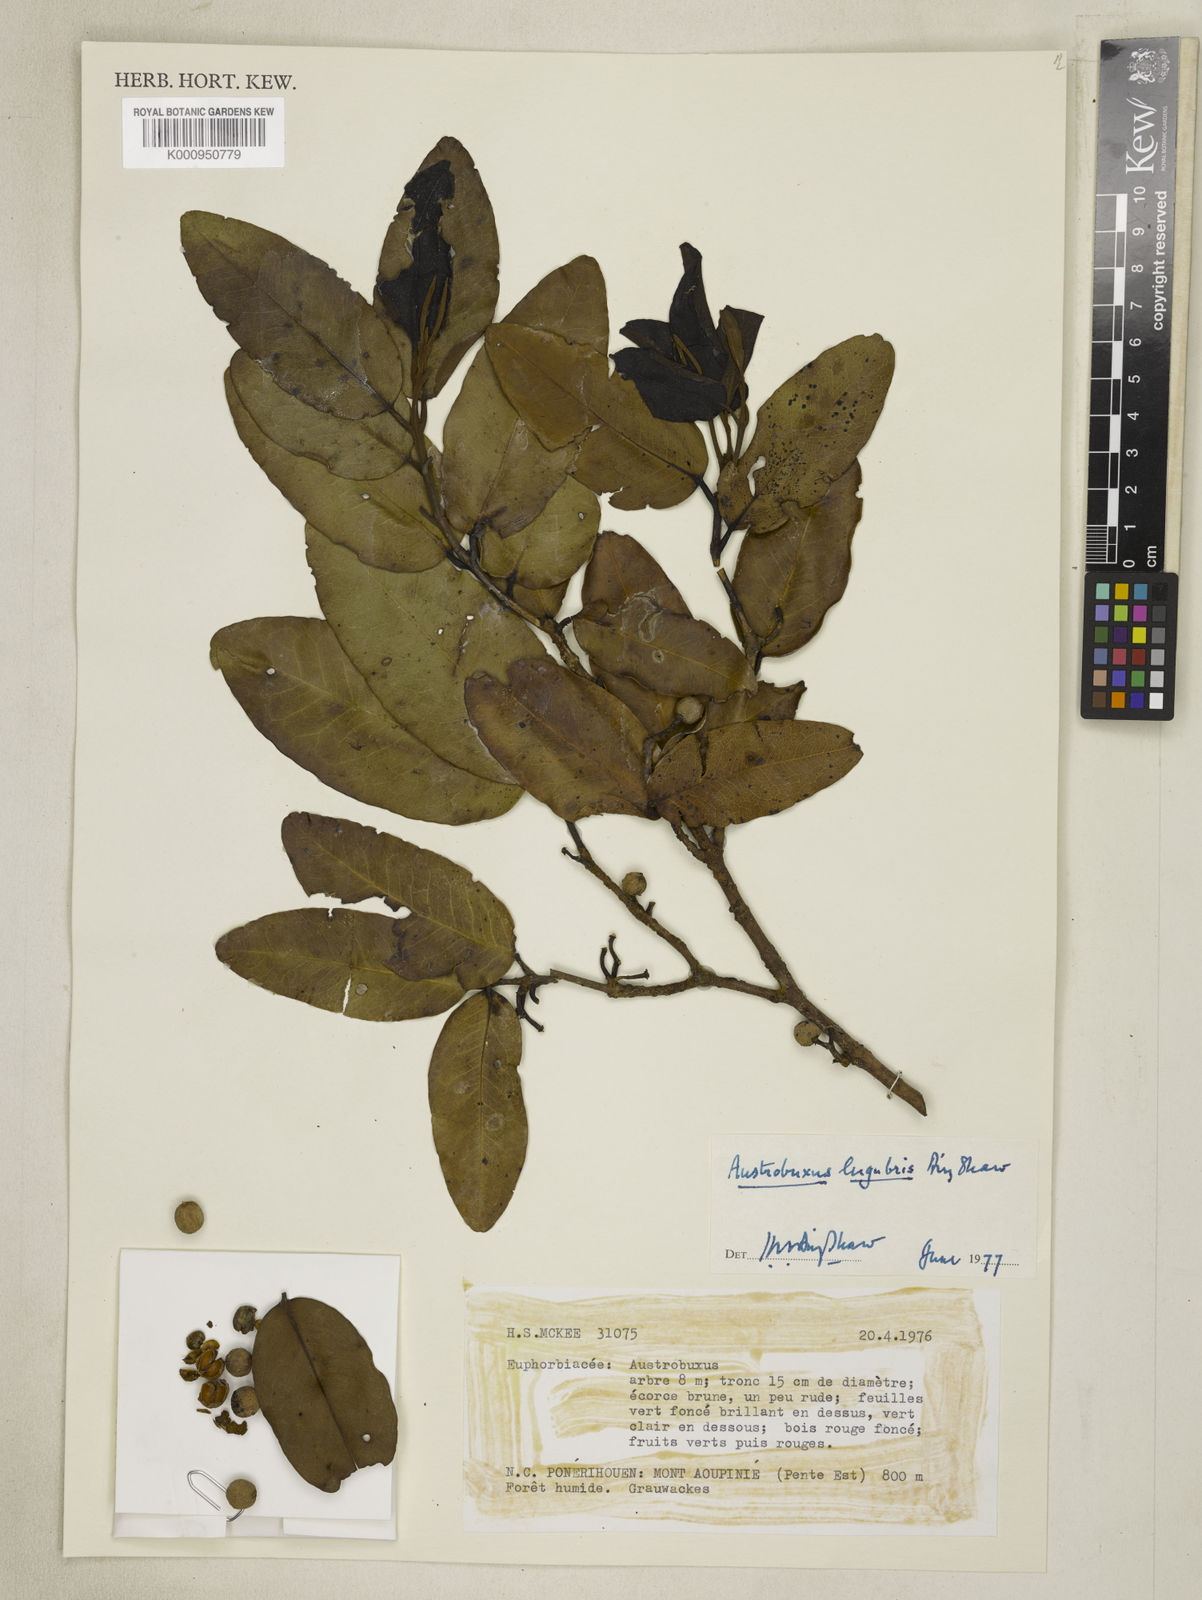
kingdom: Plantae
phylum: Tracheophyta
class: Magnoliopsida
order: Malpighiales
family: Picrodendraceae
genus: Austrobuxus
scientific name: Austrobuxus ovalis
